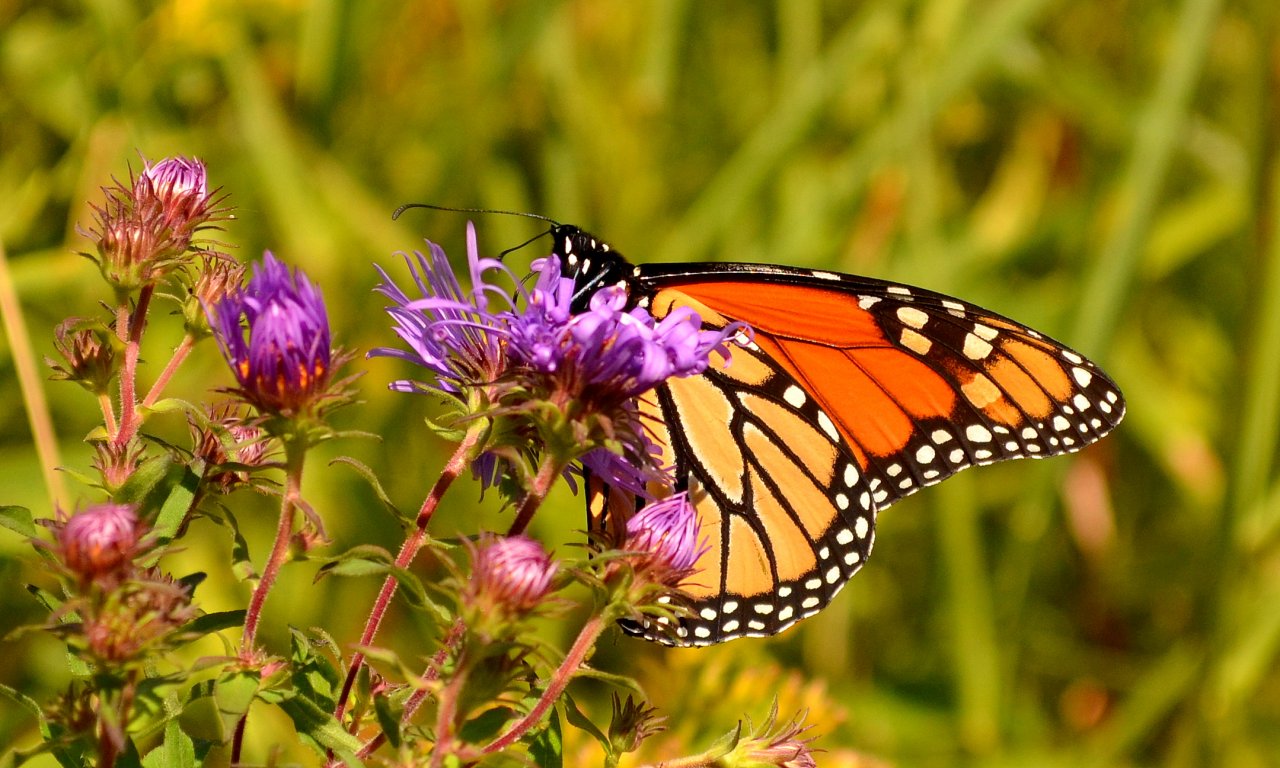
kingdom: Animalia
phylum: Arthropoda
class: Insecta
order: Lepidoptera
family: Nymphalidae
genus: Danaus
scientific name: Danaus plexippus
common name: Monarch
